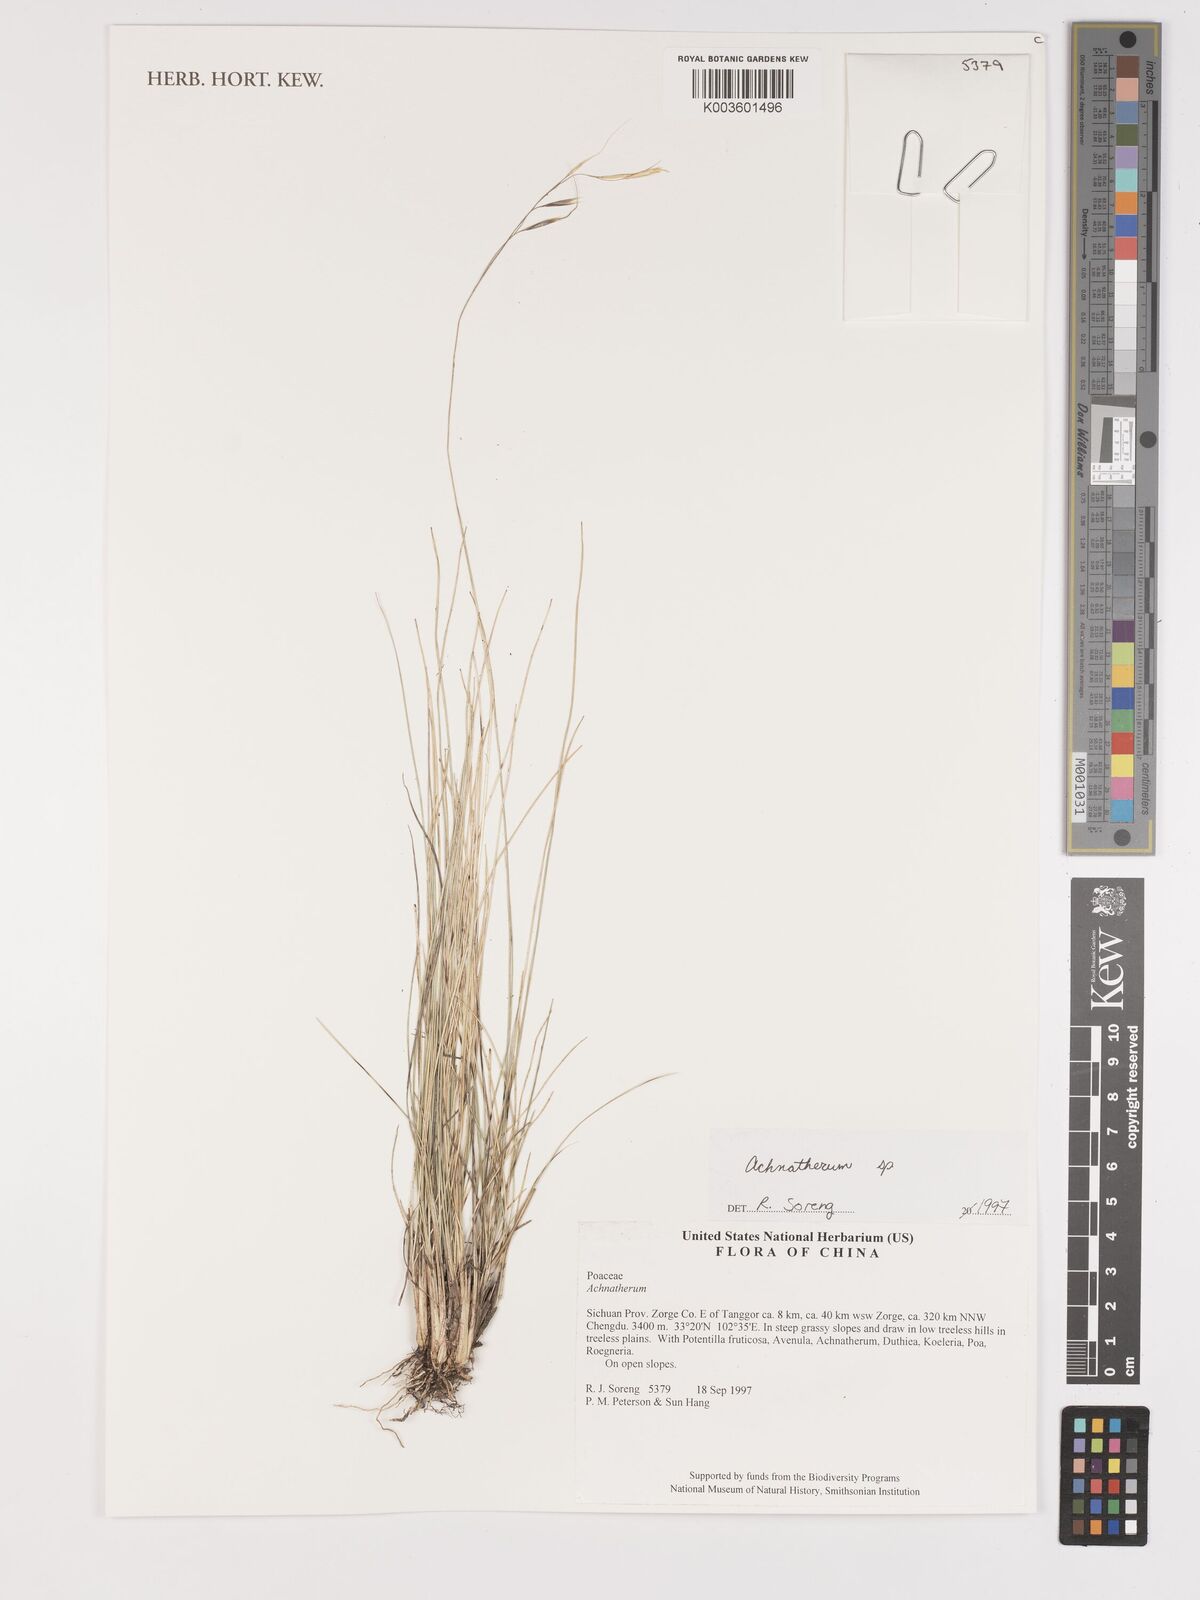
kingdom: Plantae
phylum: Tracheophyta
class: Liliopsida
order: Poales
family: Poaceae
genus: Stipa
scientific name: Stipa
